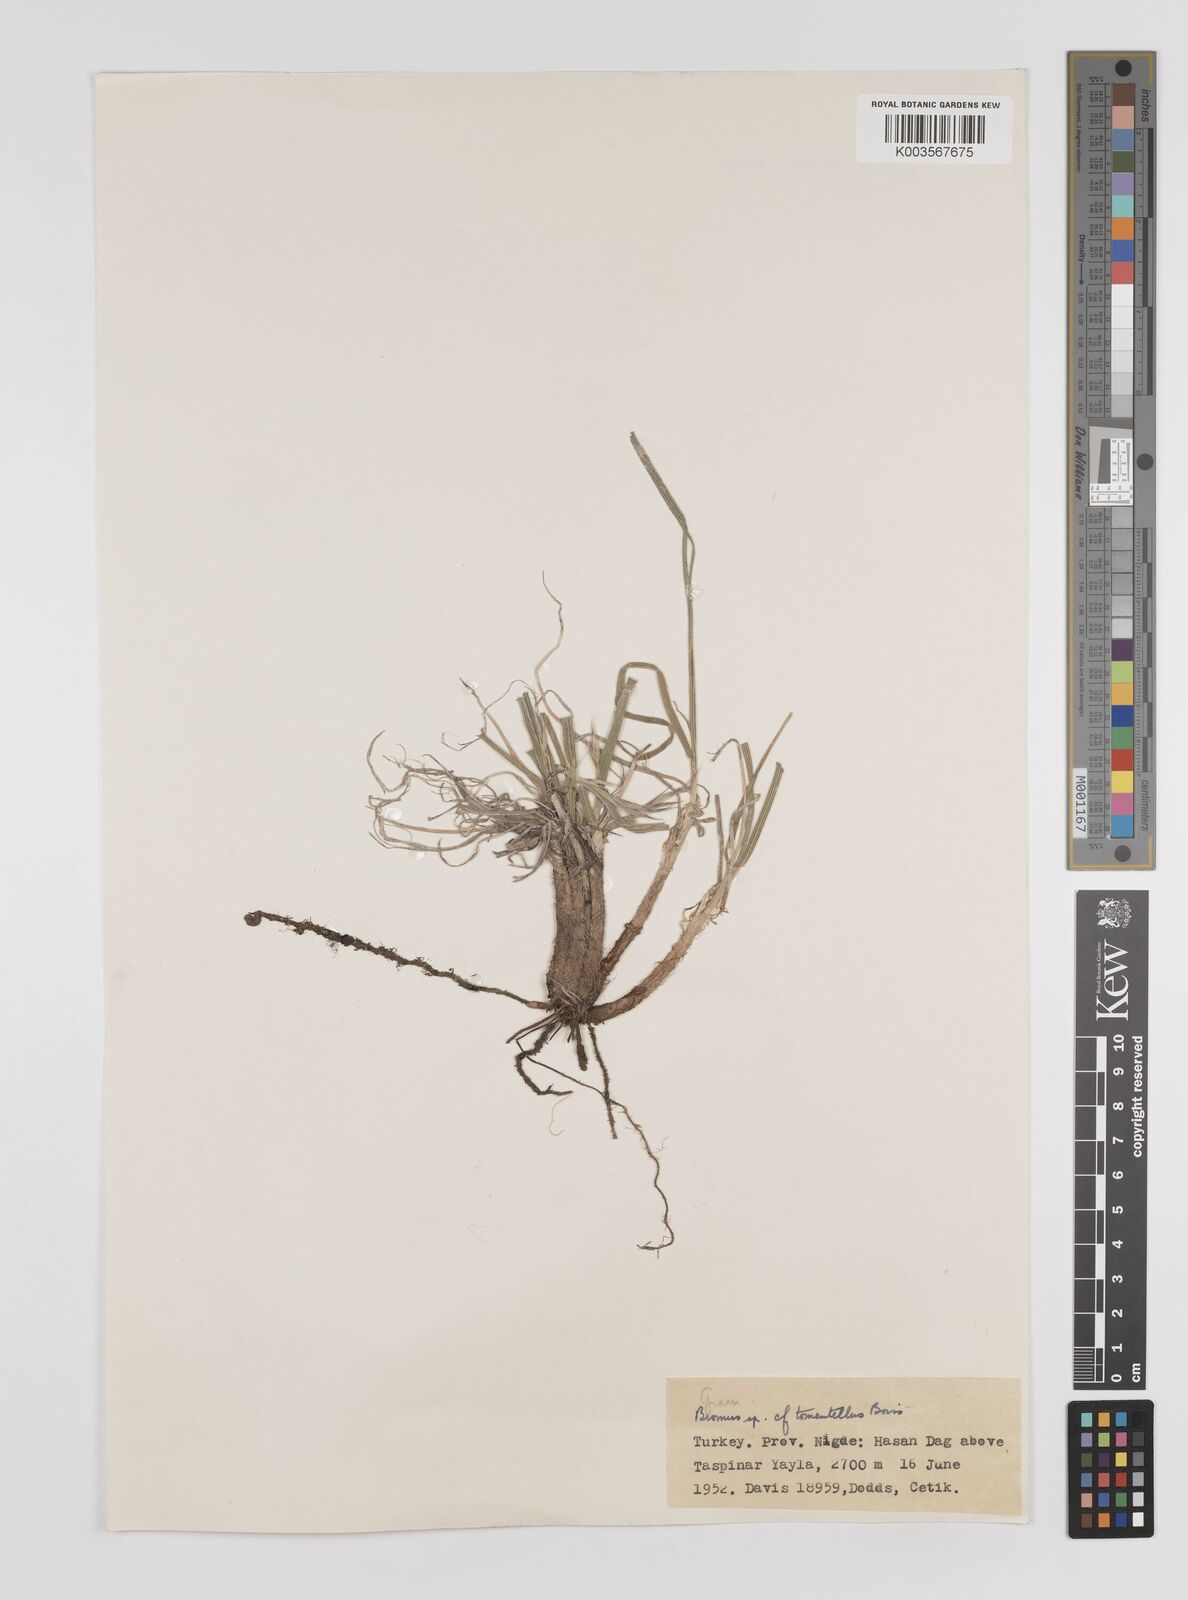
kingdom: Plantae
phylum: Tracheophyta
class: Liliopsida
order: Poales
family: Poaceae
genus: Bromus
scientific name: Bromus
